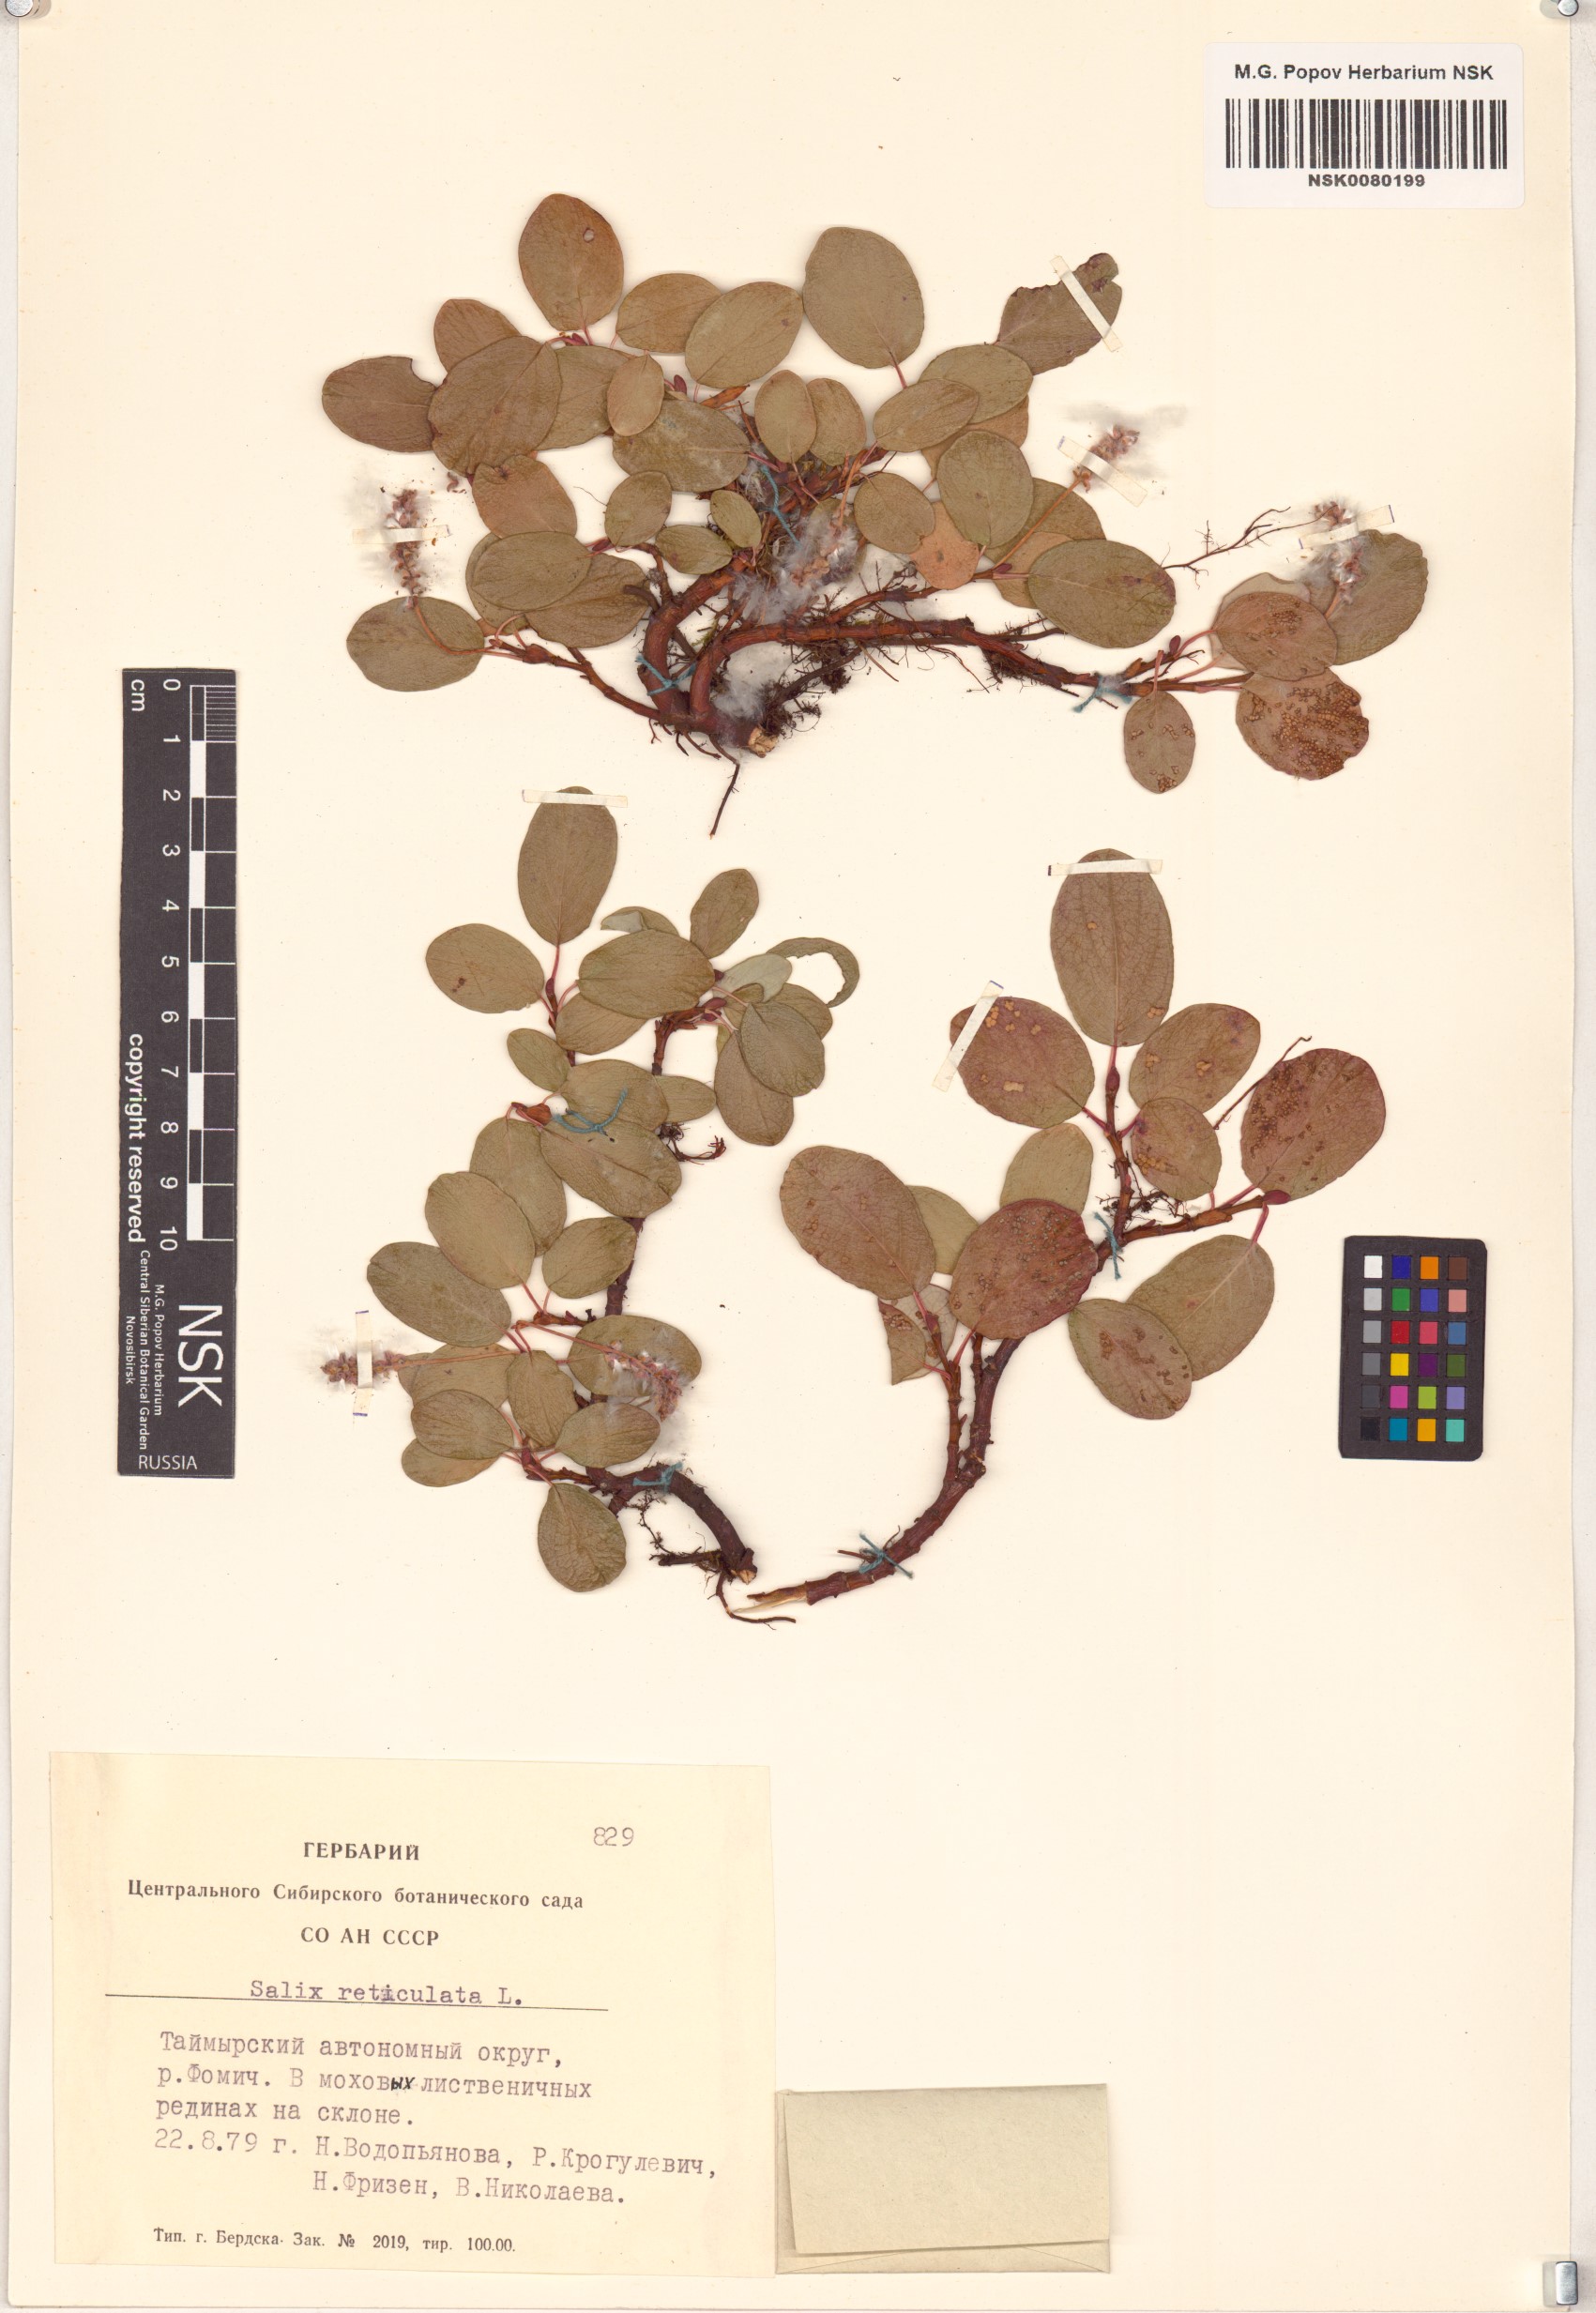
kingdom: Plantae
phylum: Tracheophyta
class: Magnoliopsida
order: Malpighiales
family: Salicaceae
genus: Salix
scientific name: Salix reticulata
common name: Net-leaved willow
